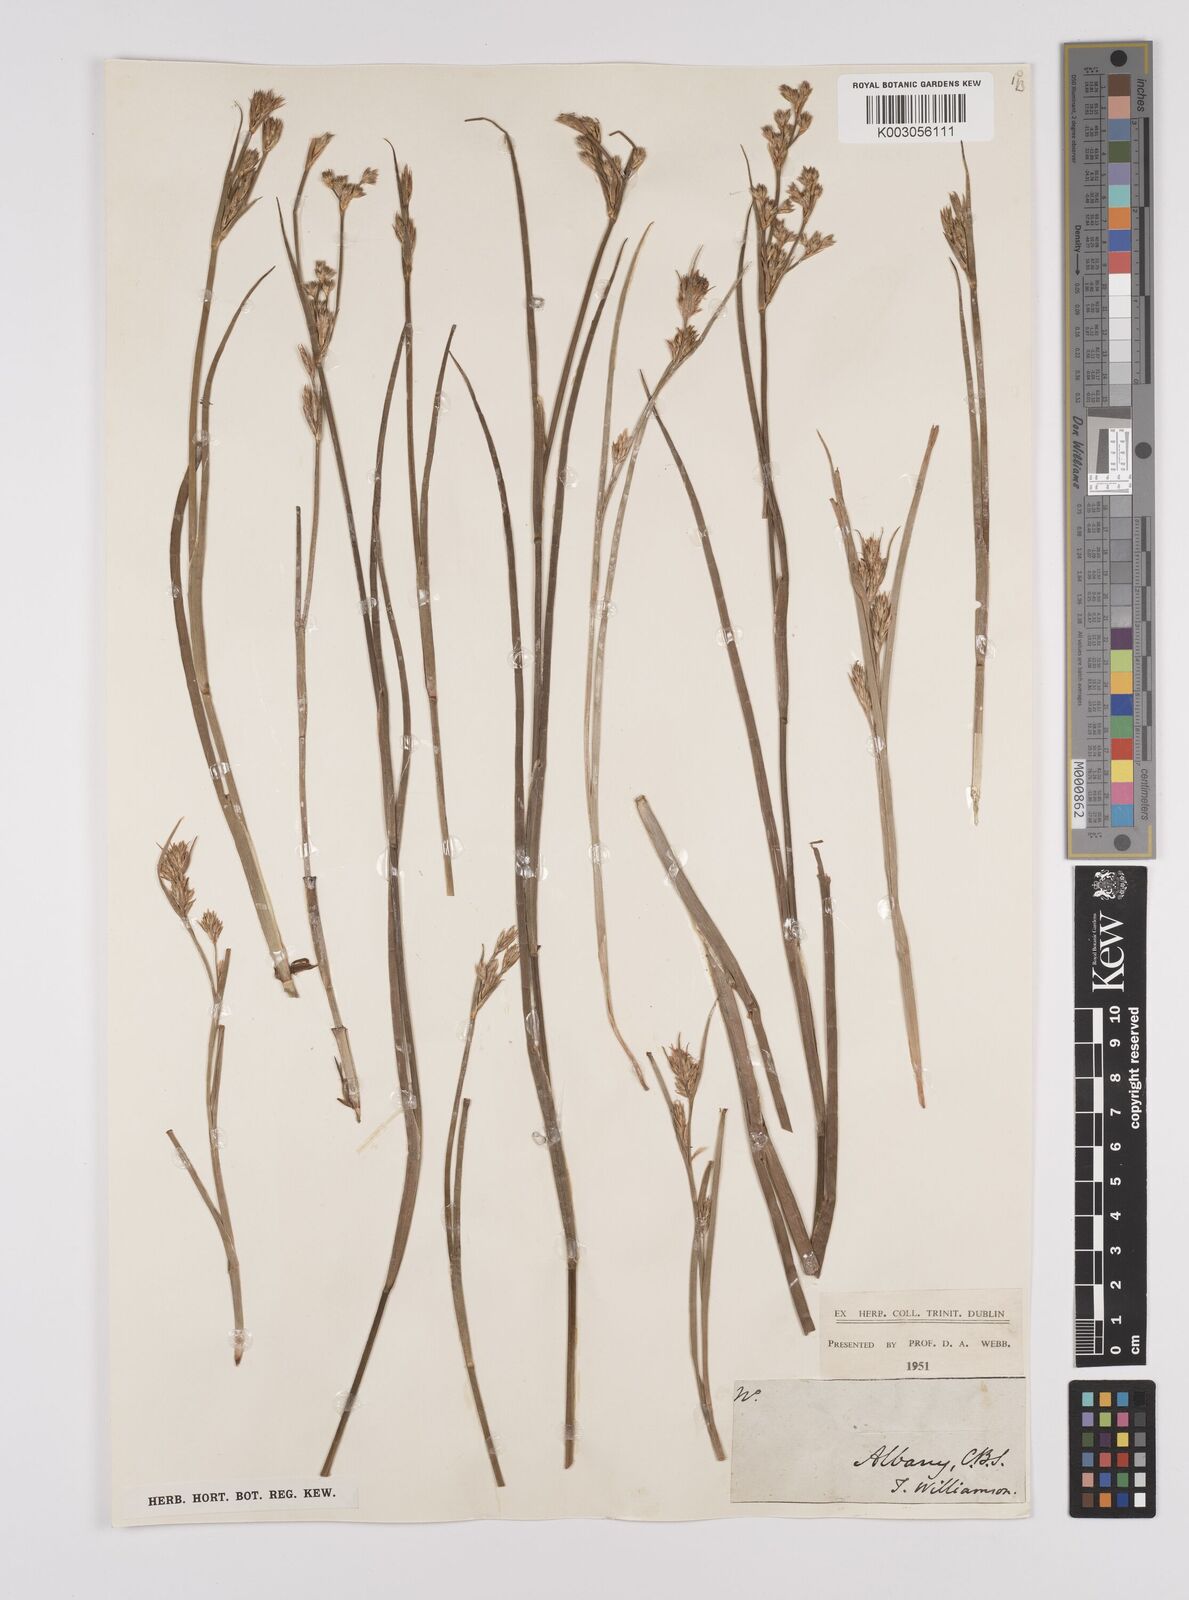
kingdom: Plantae
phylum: Tracheophyta
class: Liliopsida
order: Poales
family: Juncaceae
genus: Juncus
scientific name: Juncus
